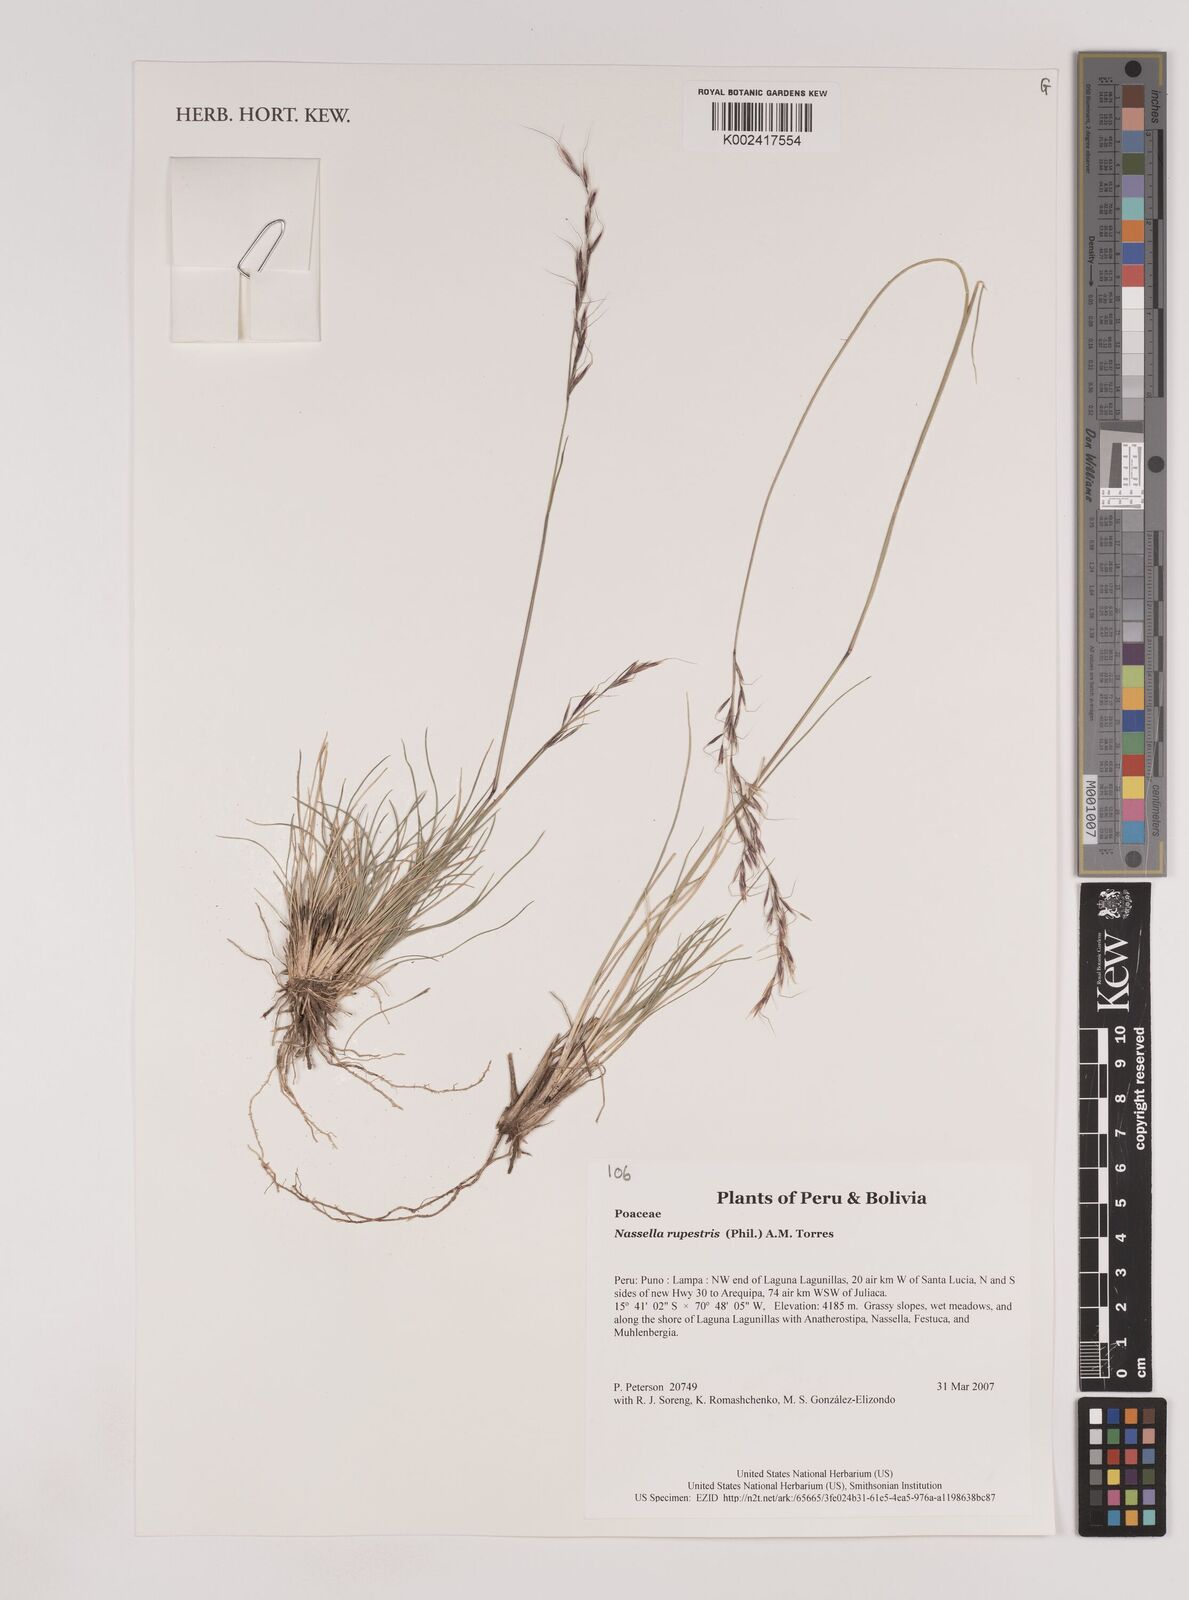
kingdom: Plantae
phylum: Tracheophyta
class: Liliopsida
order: Poales
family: Poaceae
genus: Nassella
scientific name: Nassella rupestris
